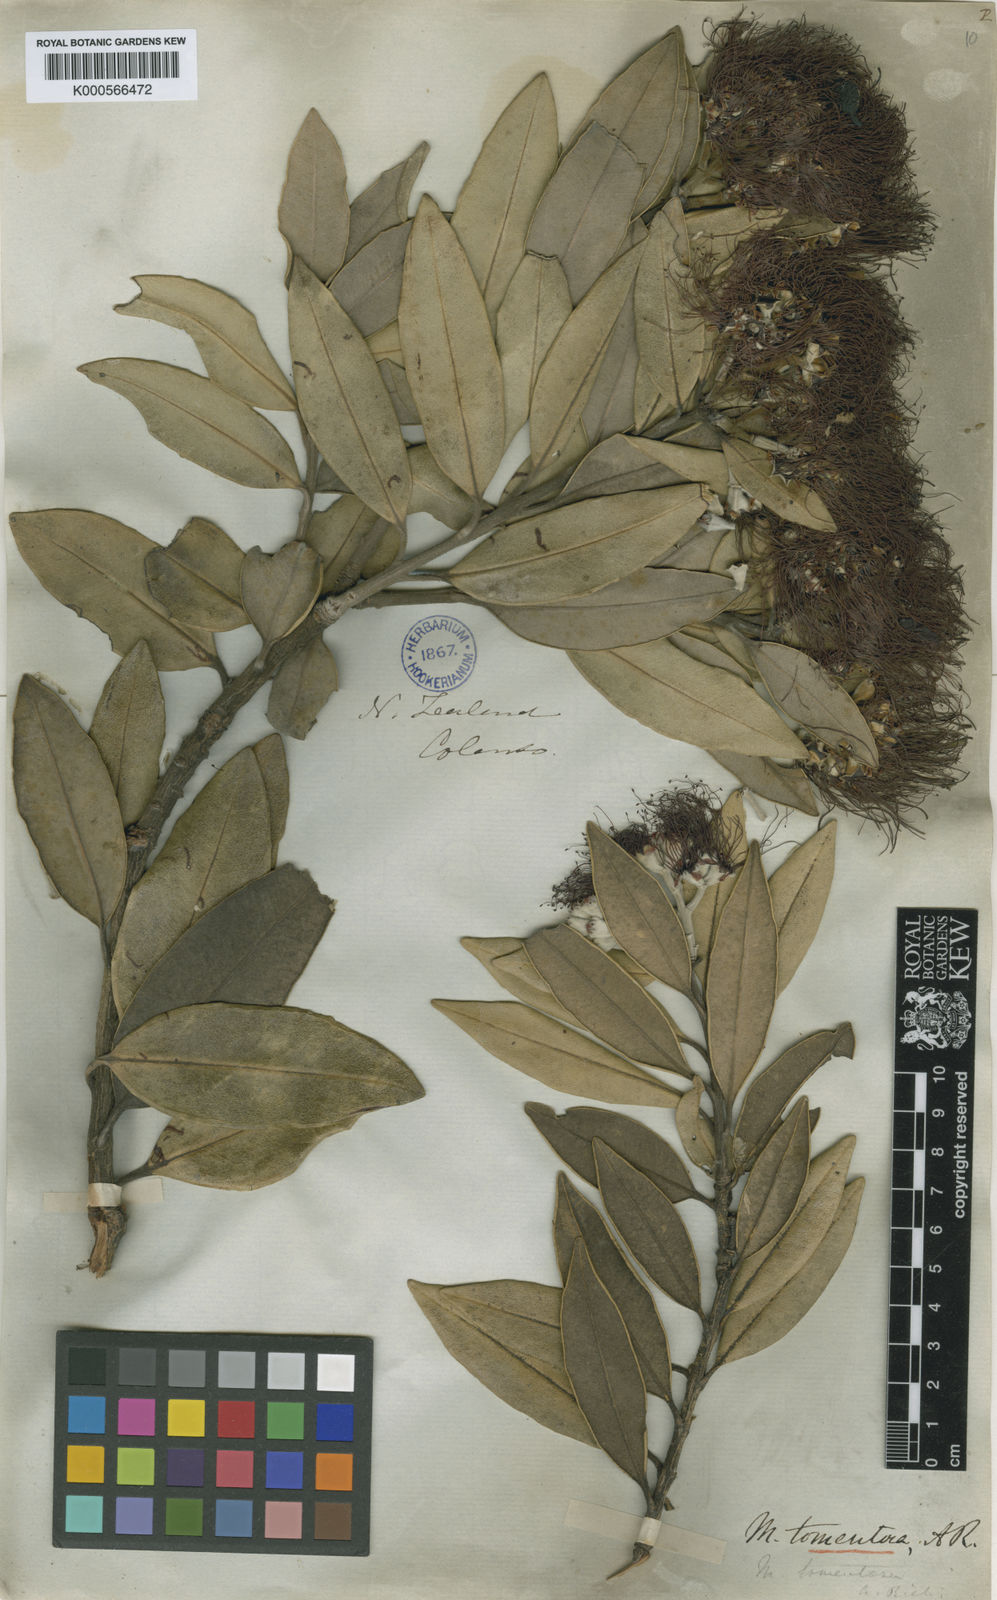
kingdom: Plantae
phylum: Tracheophyta
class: Magnoliopsida
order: Myrtales
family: Myrtaceae
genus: Metrosideros
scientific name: Metrosideros excelsa
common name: New zealand christmastree
